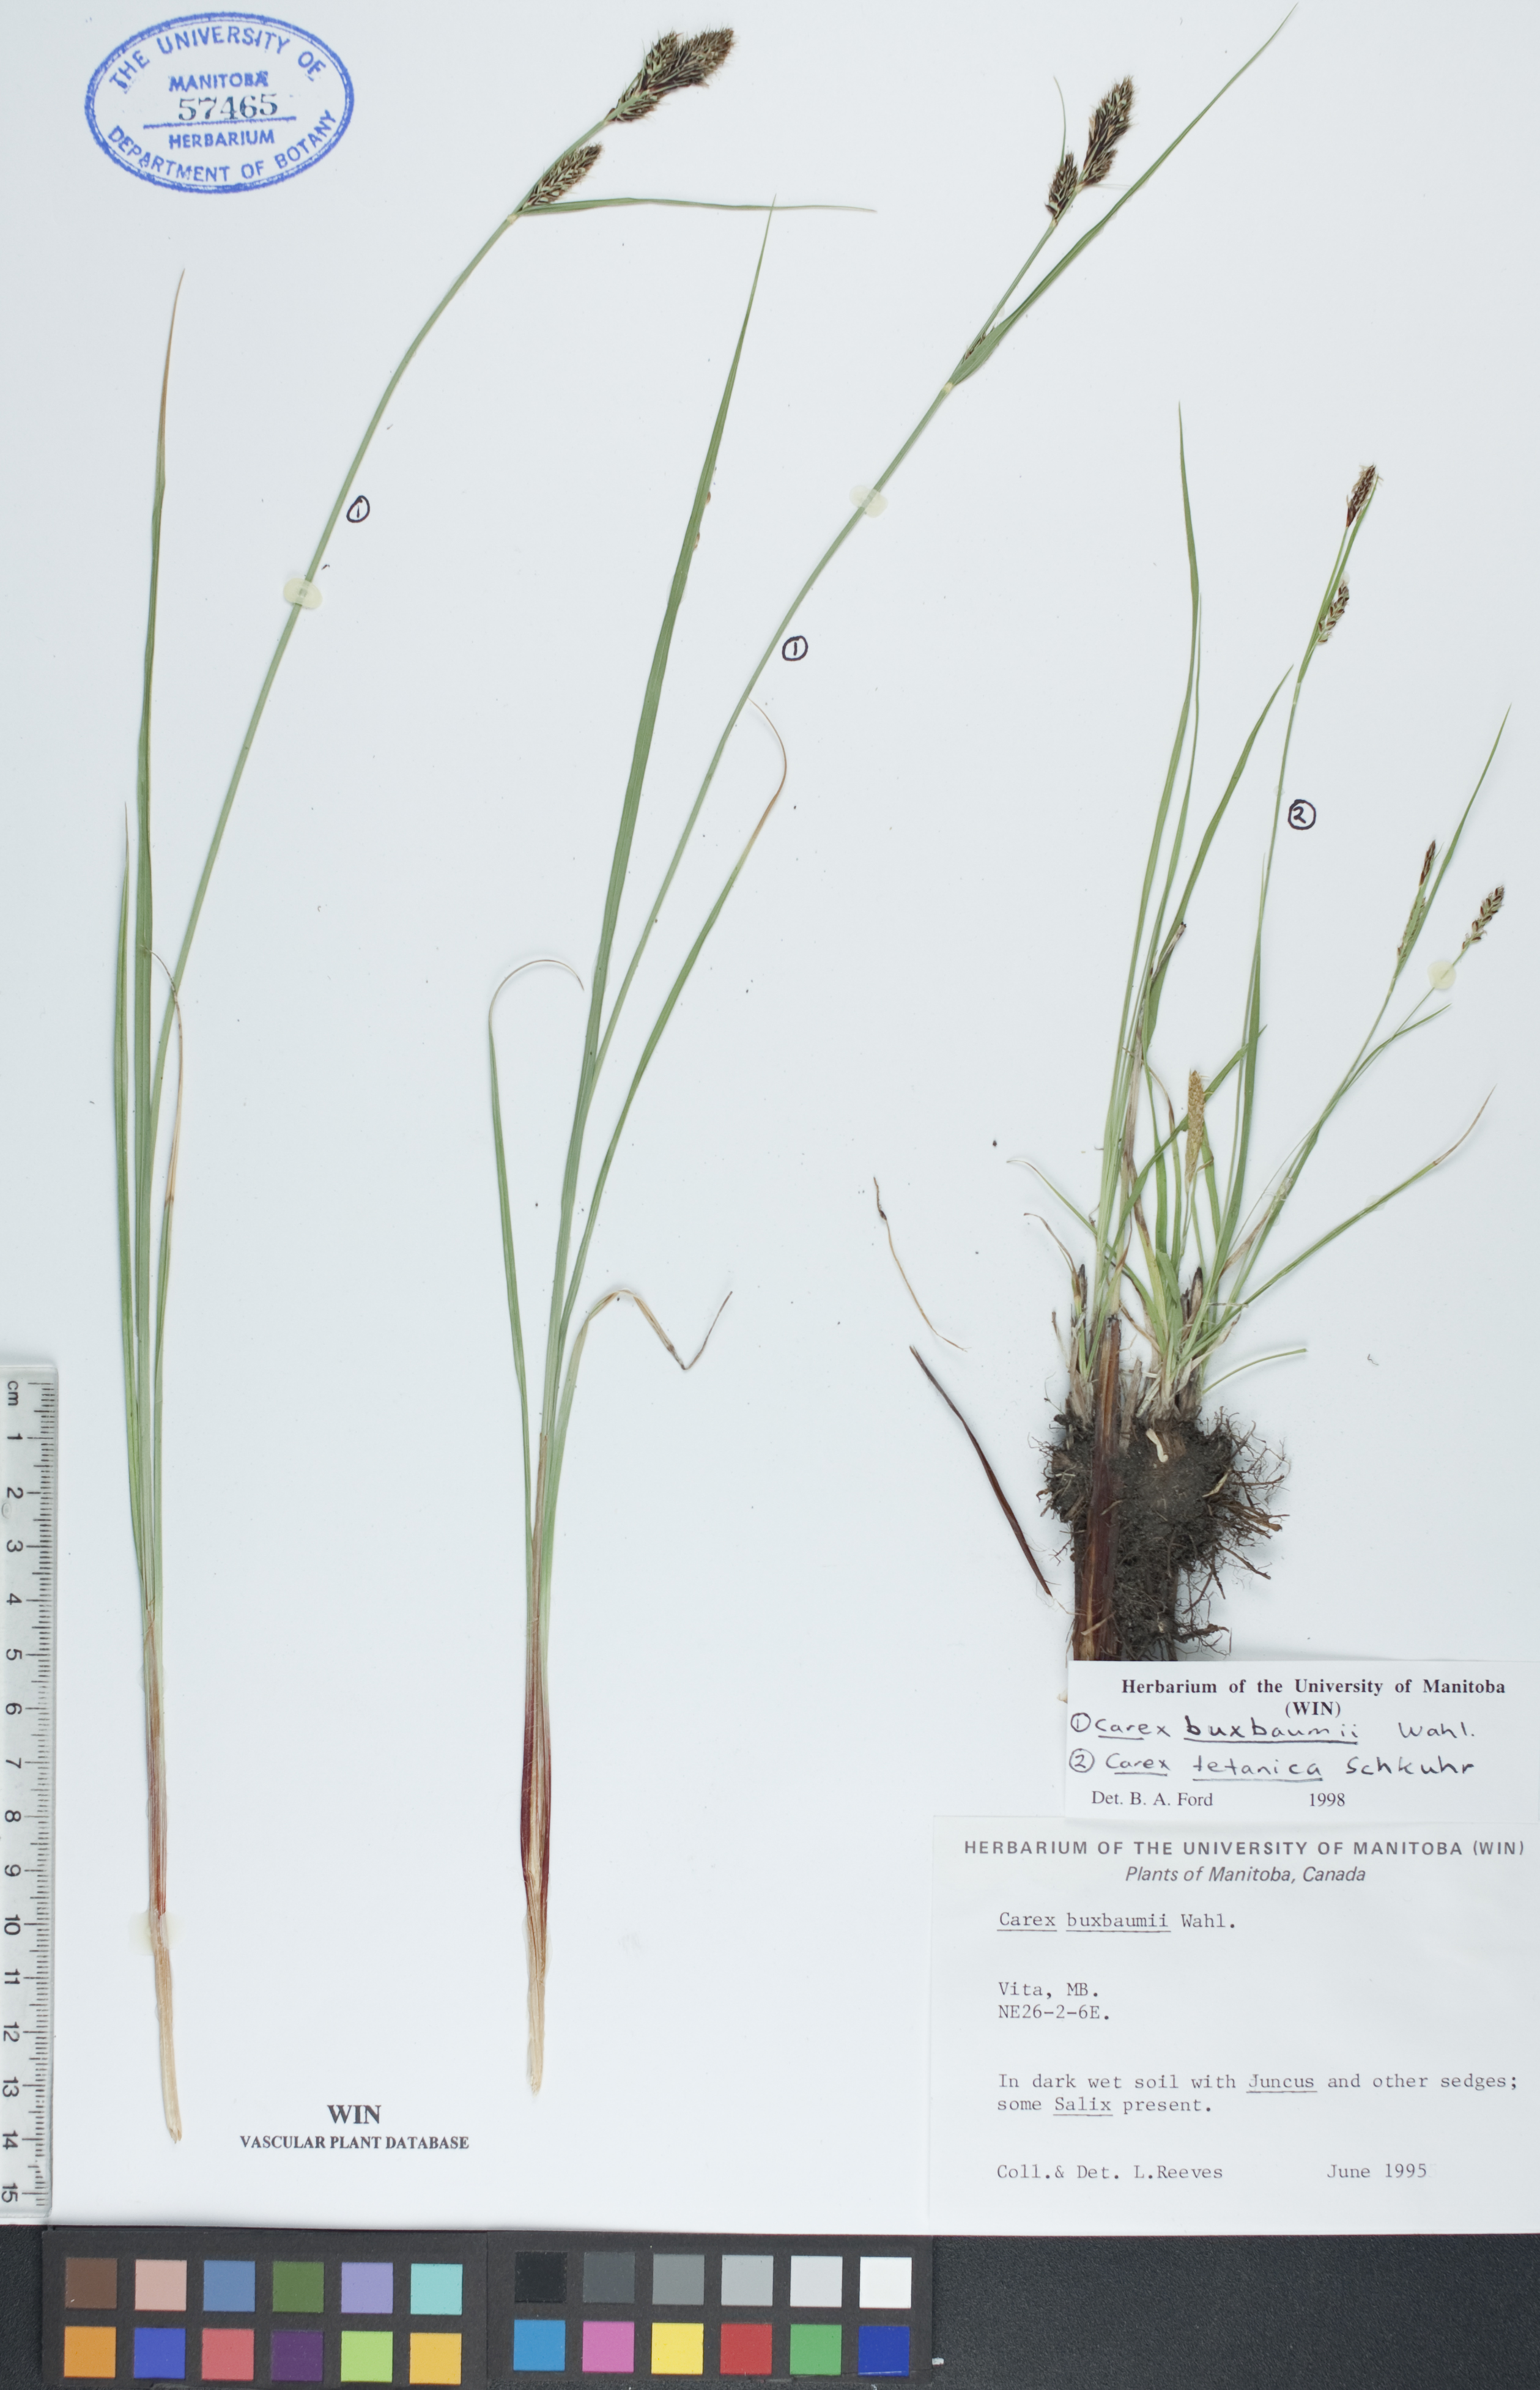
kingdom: Plantae
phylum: Tracheophyta
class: Liliopsida
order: Poales
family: Cyperaceae
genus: Carex
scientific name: Carex buxbaumii
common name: Club sedge
